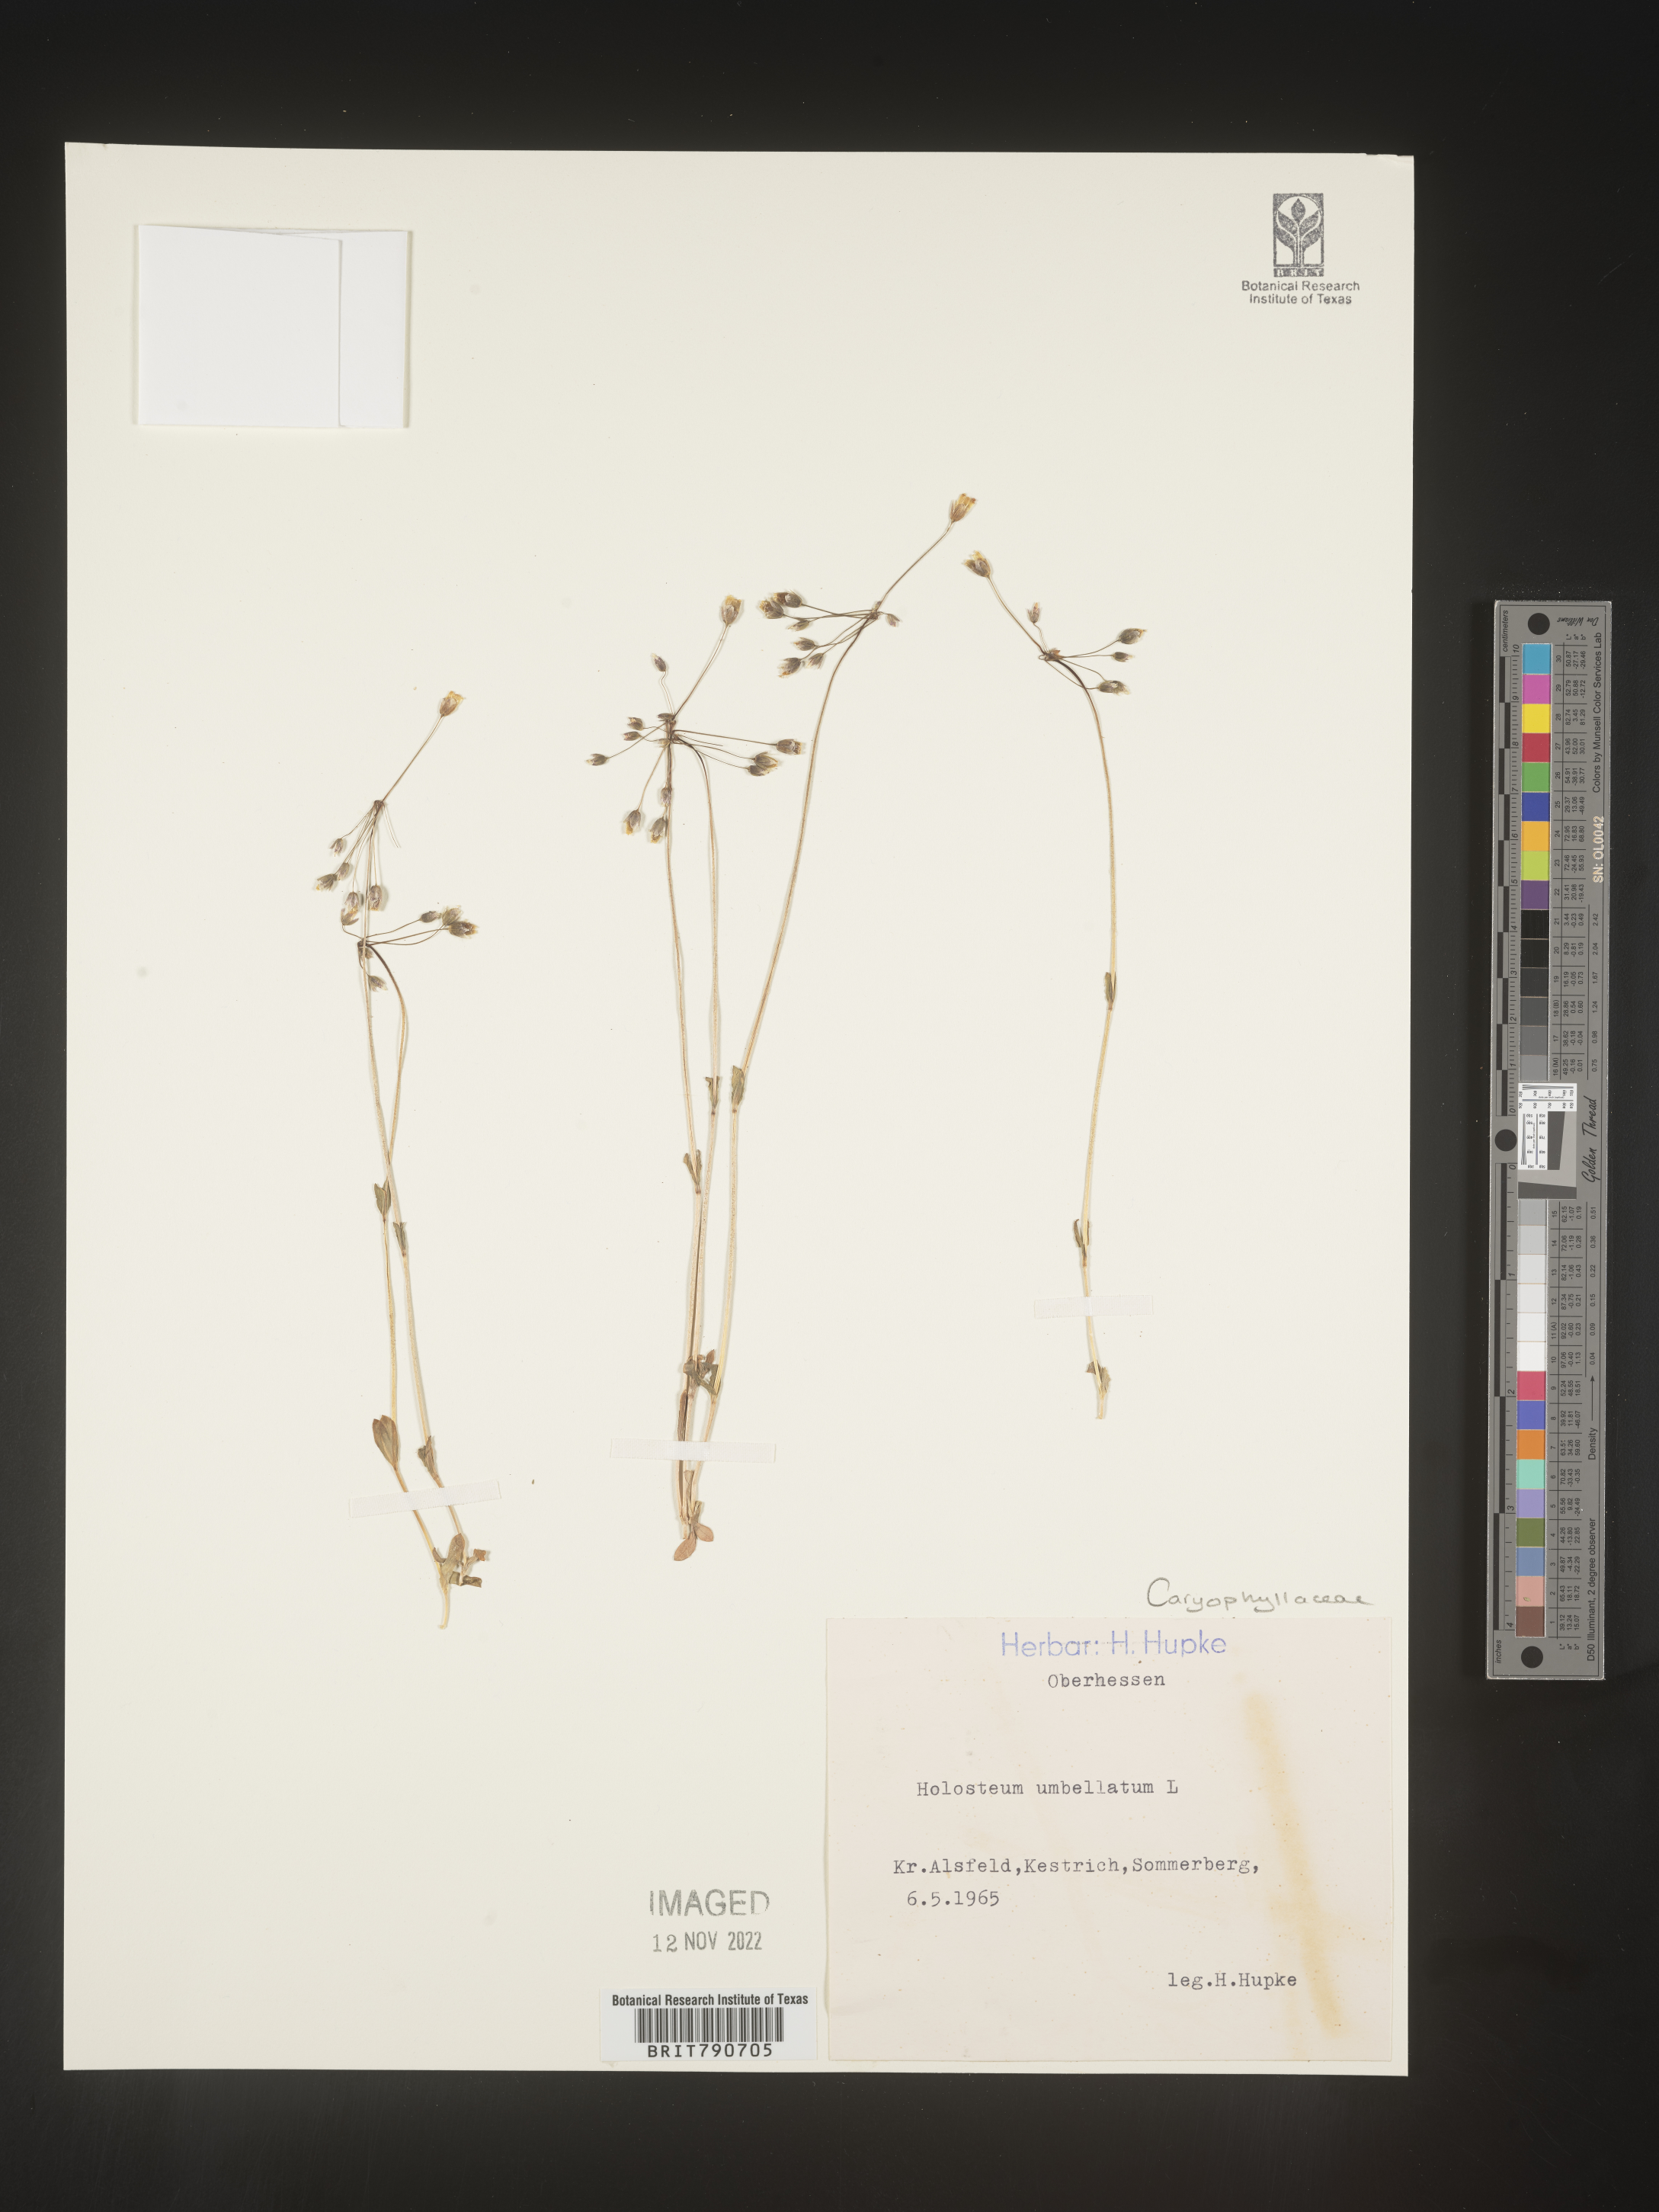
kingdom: Plantae
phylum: Tracheophyta
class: Magnoliopsida
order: Caryophyllales
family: Caryophyllaceae
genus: Holosteum
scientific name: Holosteum
